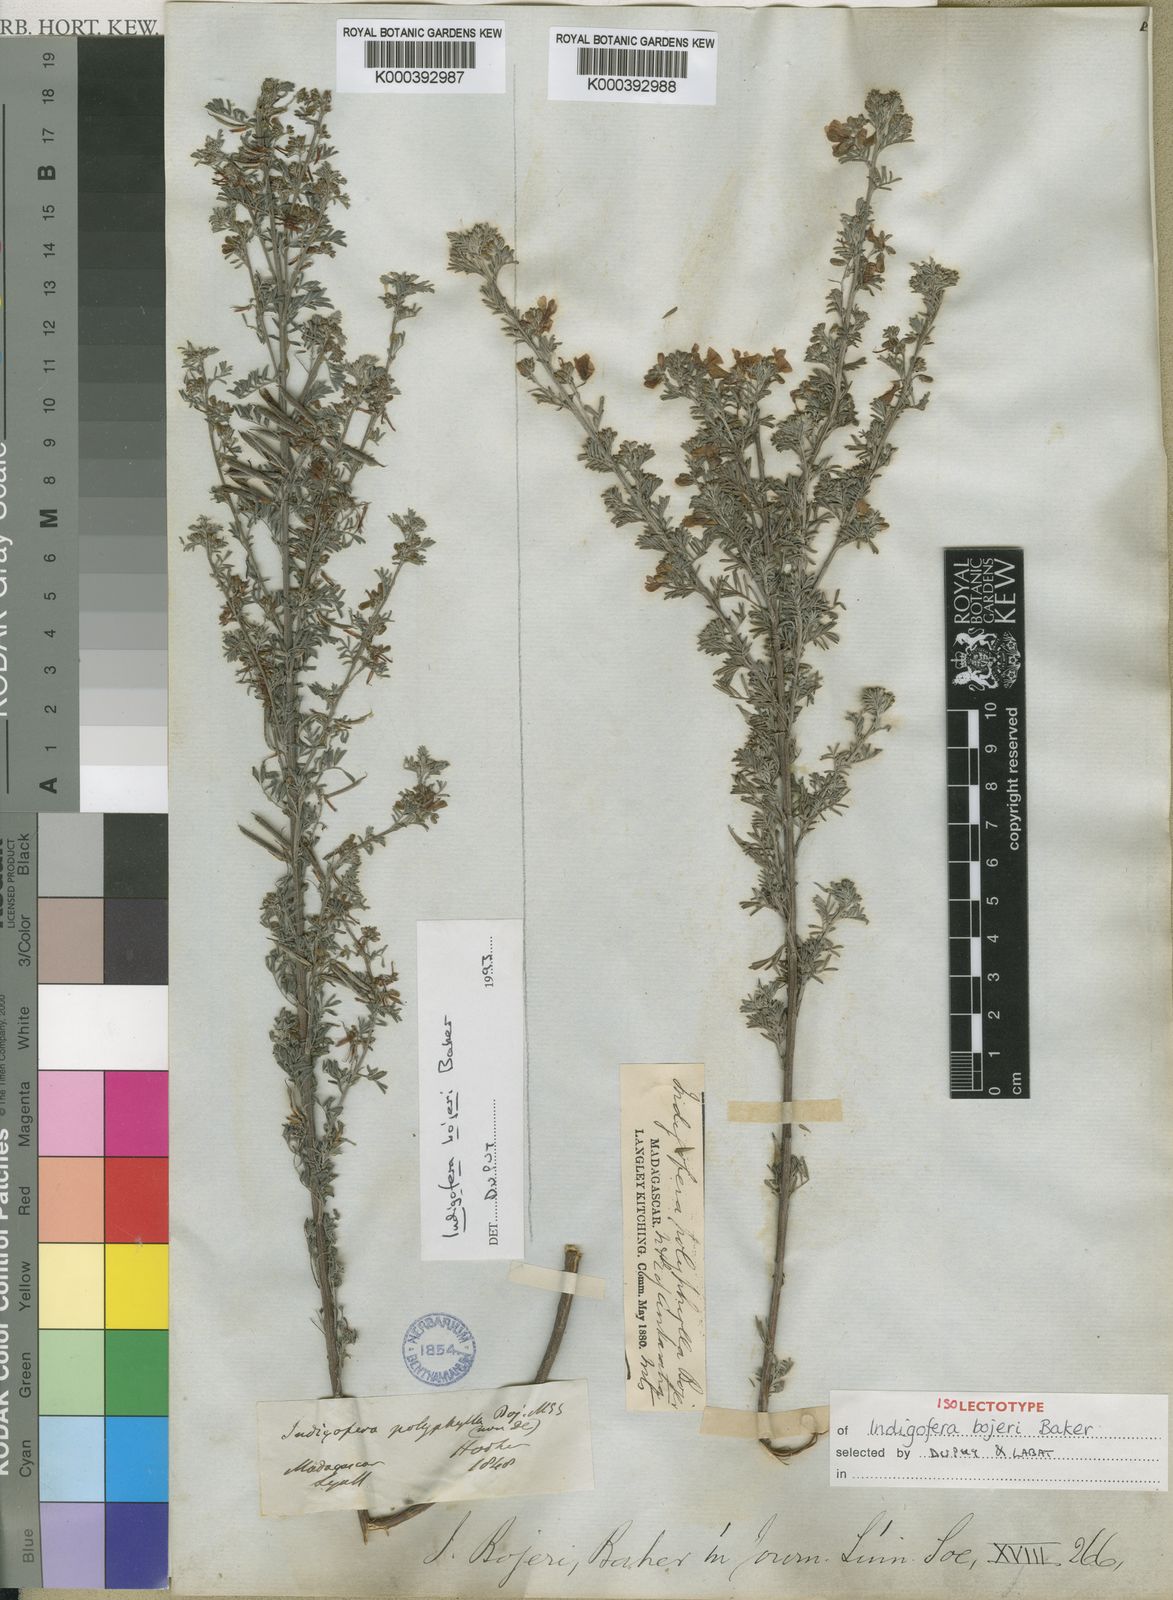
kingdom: Plantae
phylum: Tracheophyta
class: Magnoliopsida
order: Fabales
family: Fabaceae
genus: Indigofera
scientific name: Indigofera bojeri
